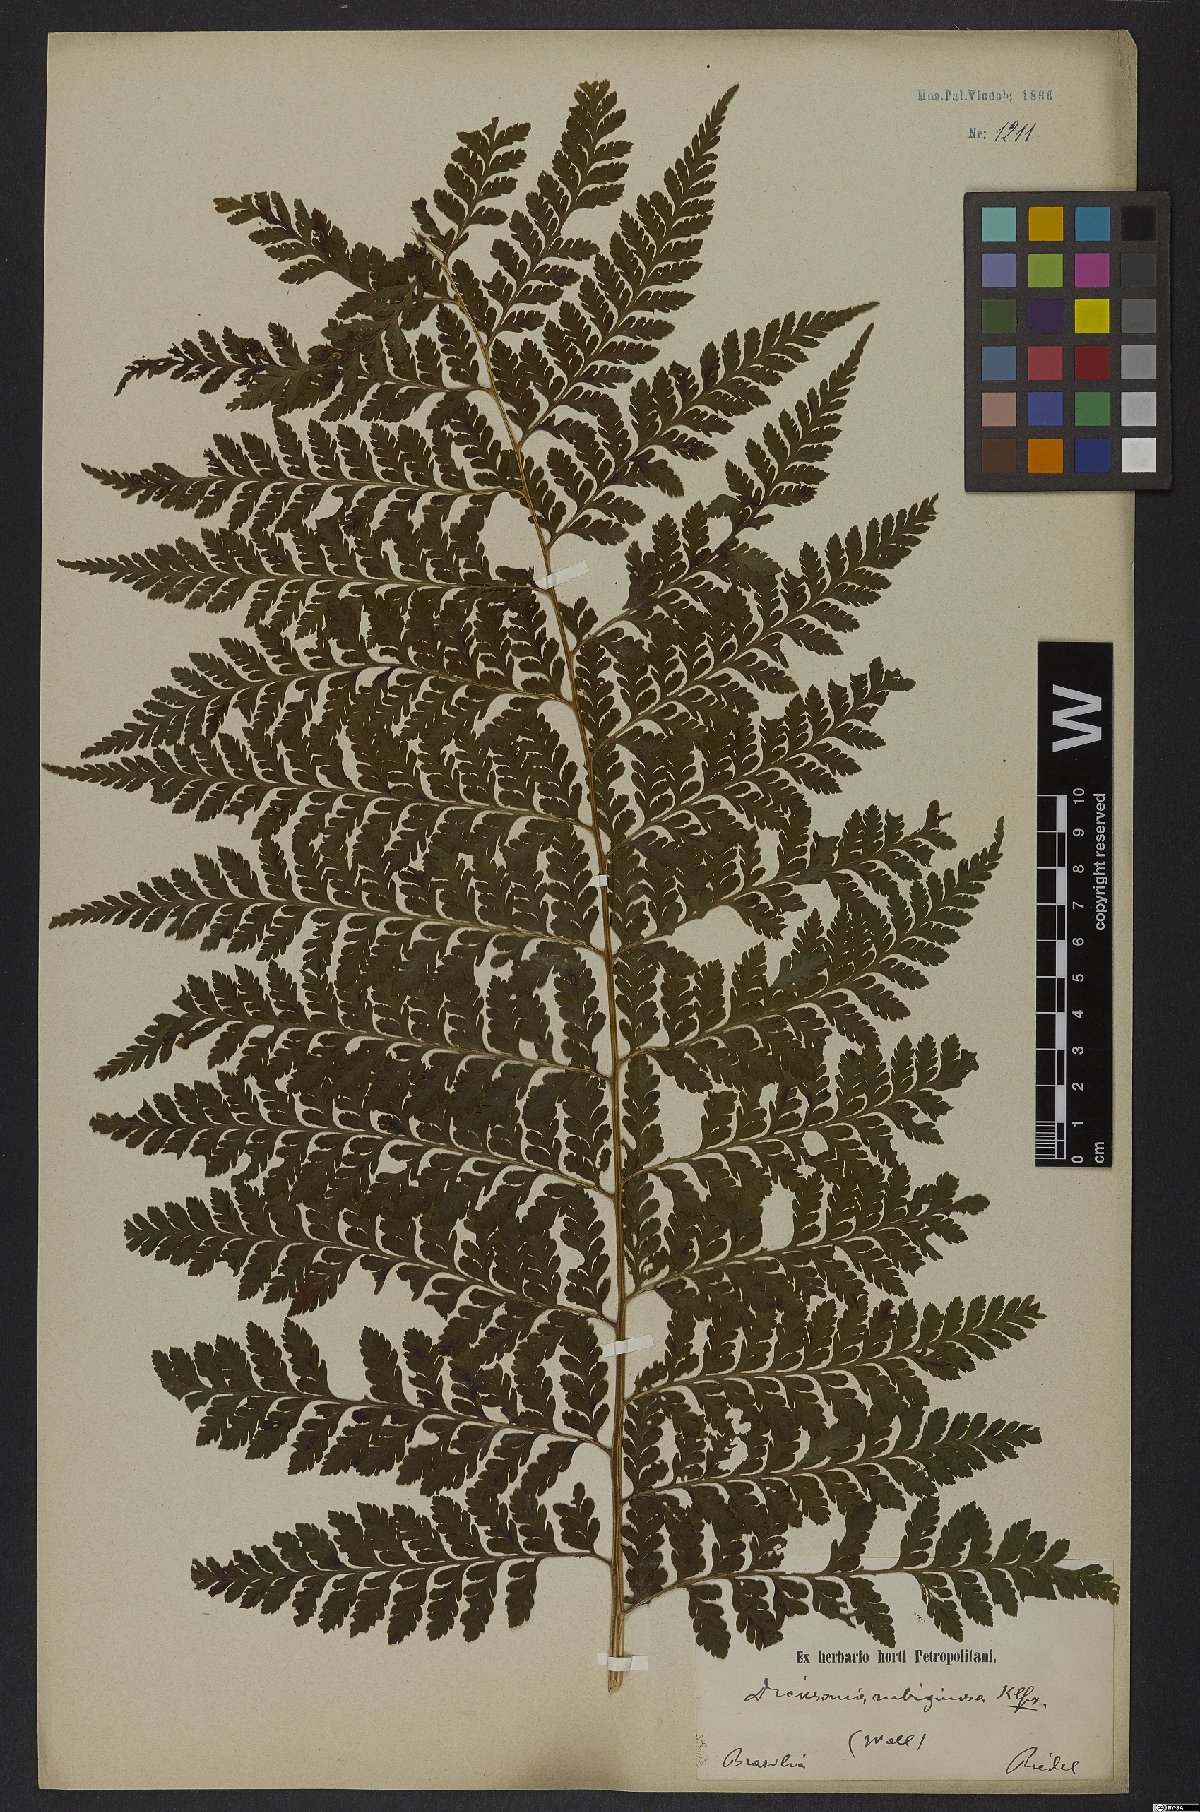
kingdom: Plantae
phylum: Tracheophyta
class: Polypodiopsida
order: Polypodiales
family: Dennstaedtiaceae
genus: Dennstaedtia
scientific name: Dennstaedtia cicutaria
